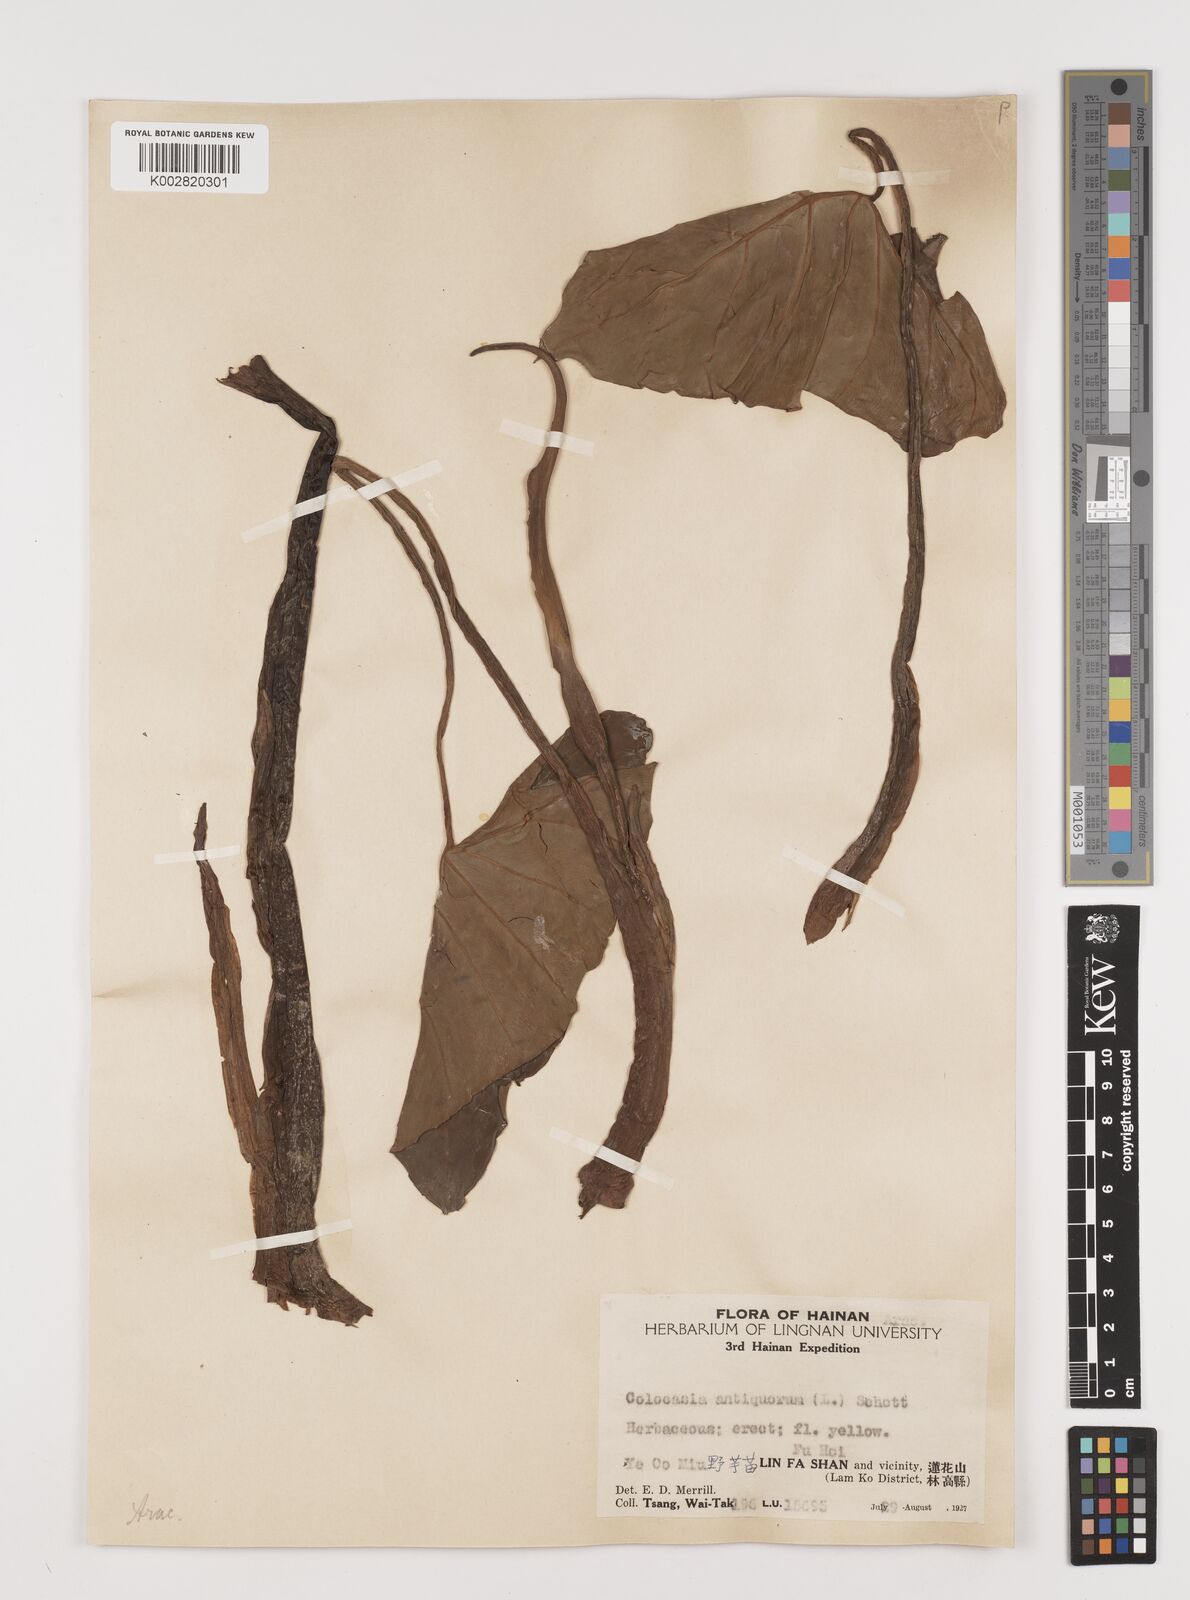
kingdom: Plantae
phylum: Tracheophyta
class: Liliopsida
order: Alismatales
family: Araceae
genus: Colocasia
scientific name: Colocasia esculenta
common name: Taro
